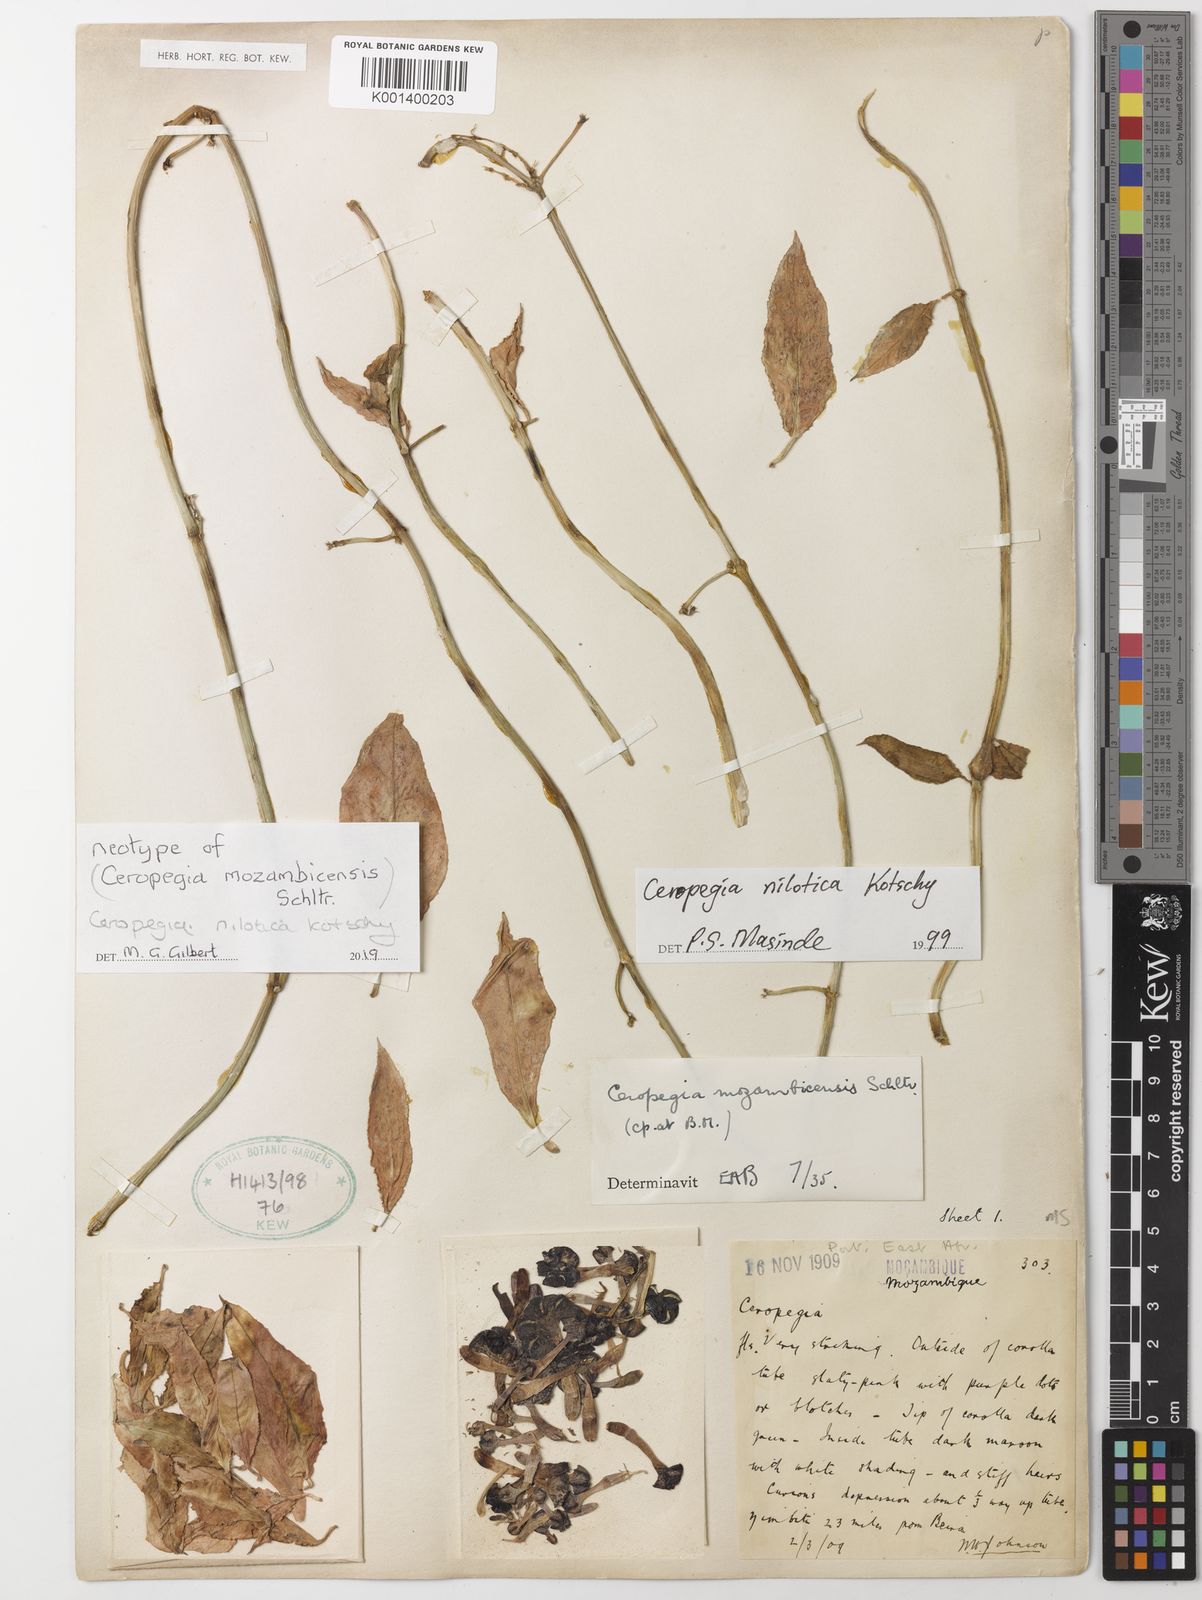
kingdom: Plantae
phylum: Tracheophyta
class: Magnoliopsida
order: Gentianales
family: Apocynaceae
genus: Ceropegia
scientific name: Ceropegia nilotica
